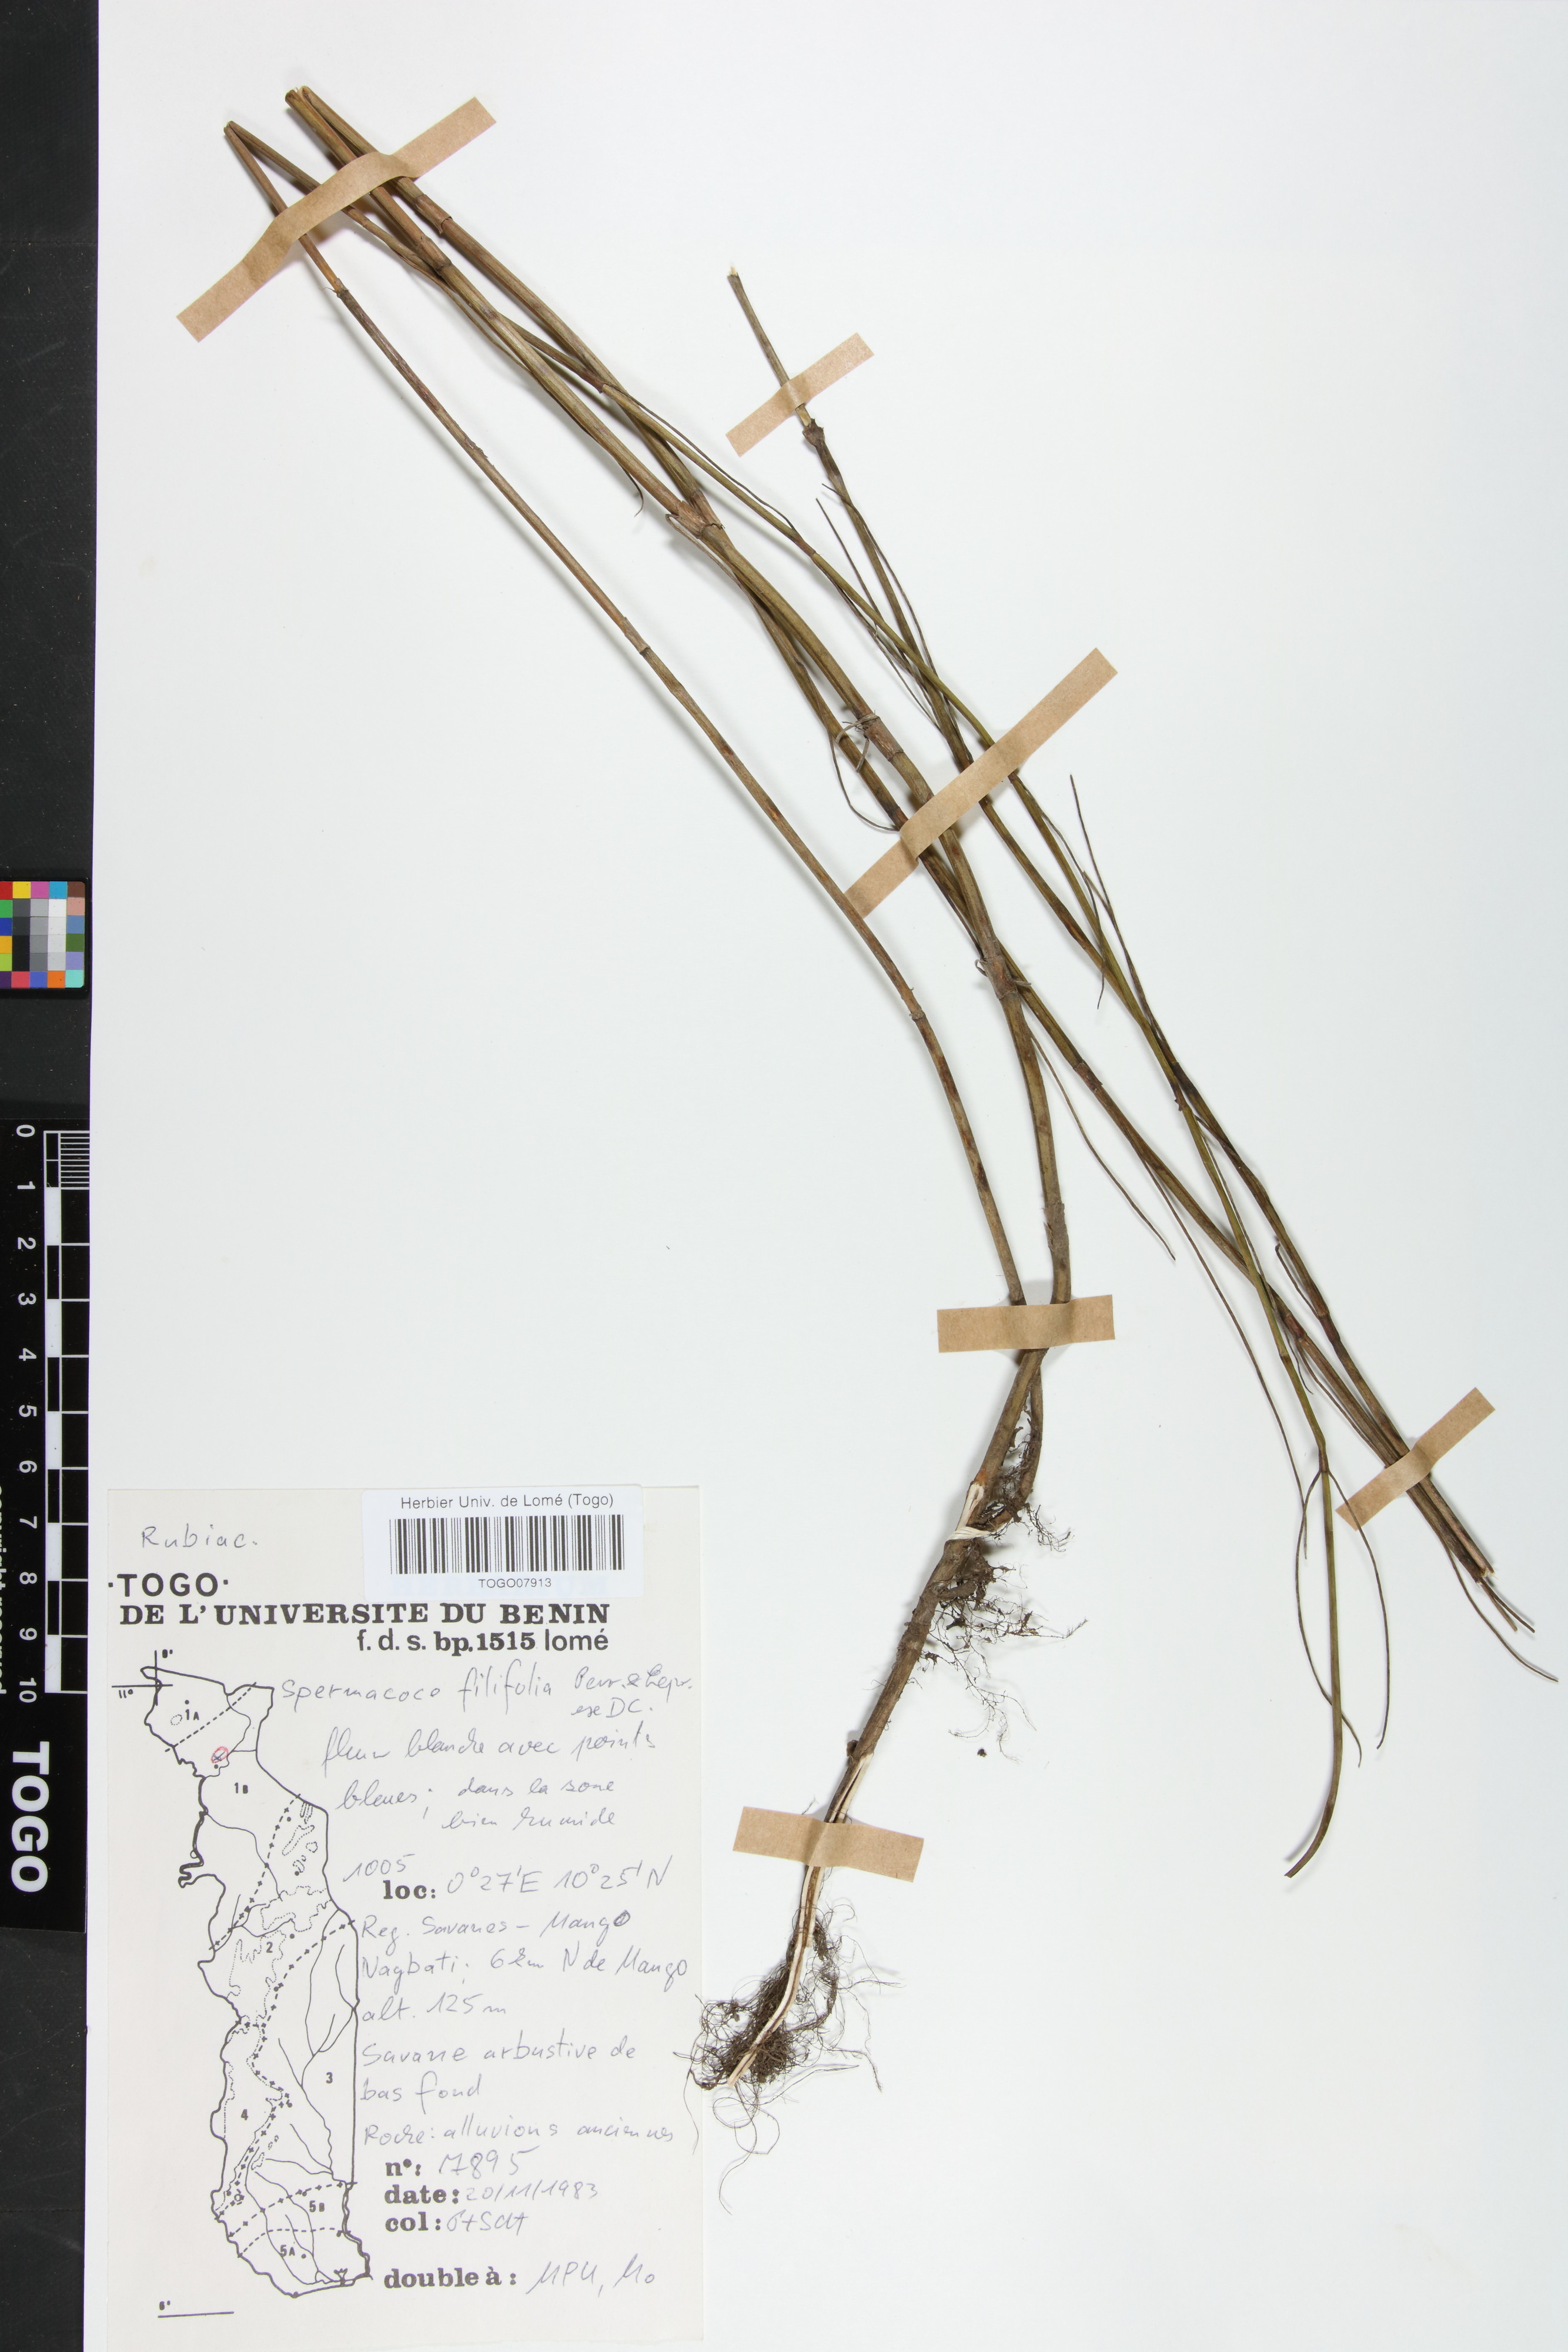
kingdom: Plantae
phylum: Tracheophyta
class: Magnoliopsida
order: Gentianales
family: Rubiaceae
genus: Spermacoce
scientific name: Spermacoce filifolia
